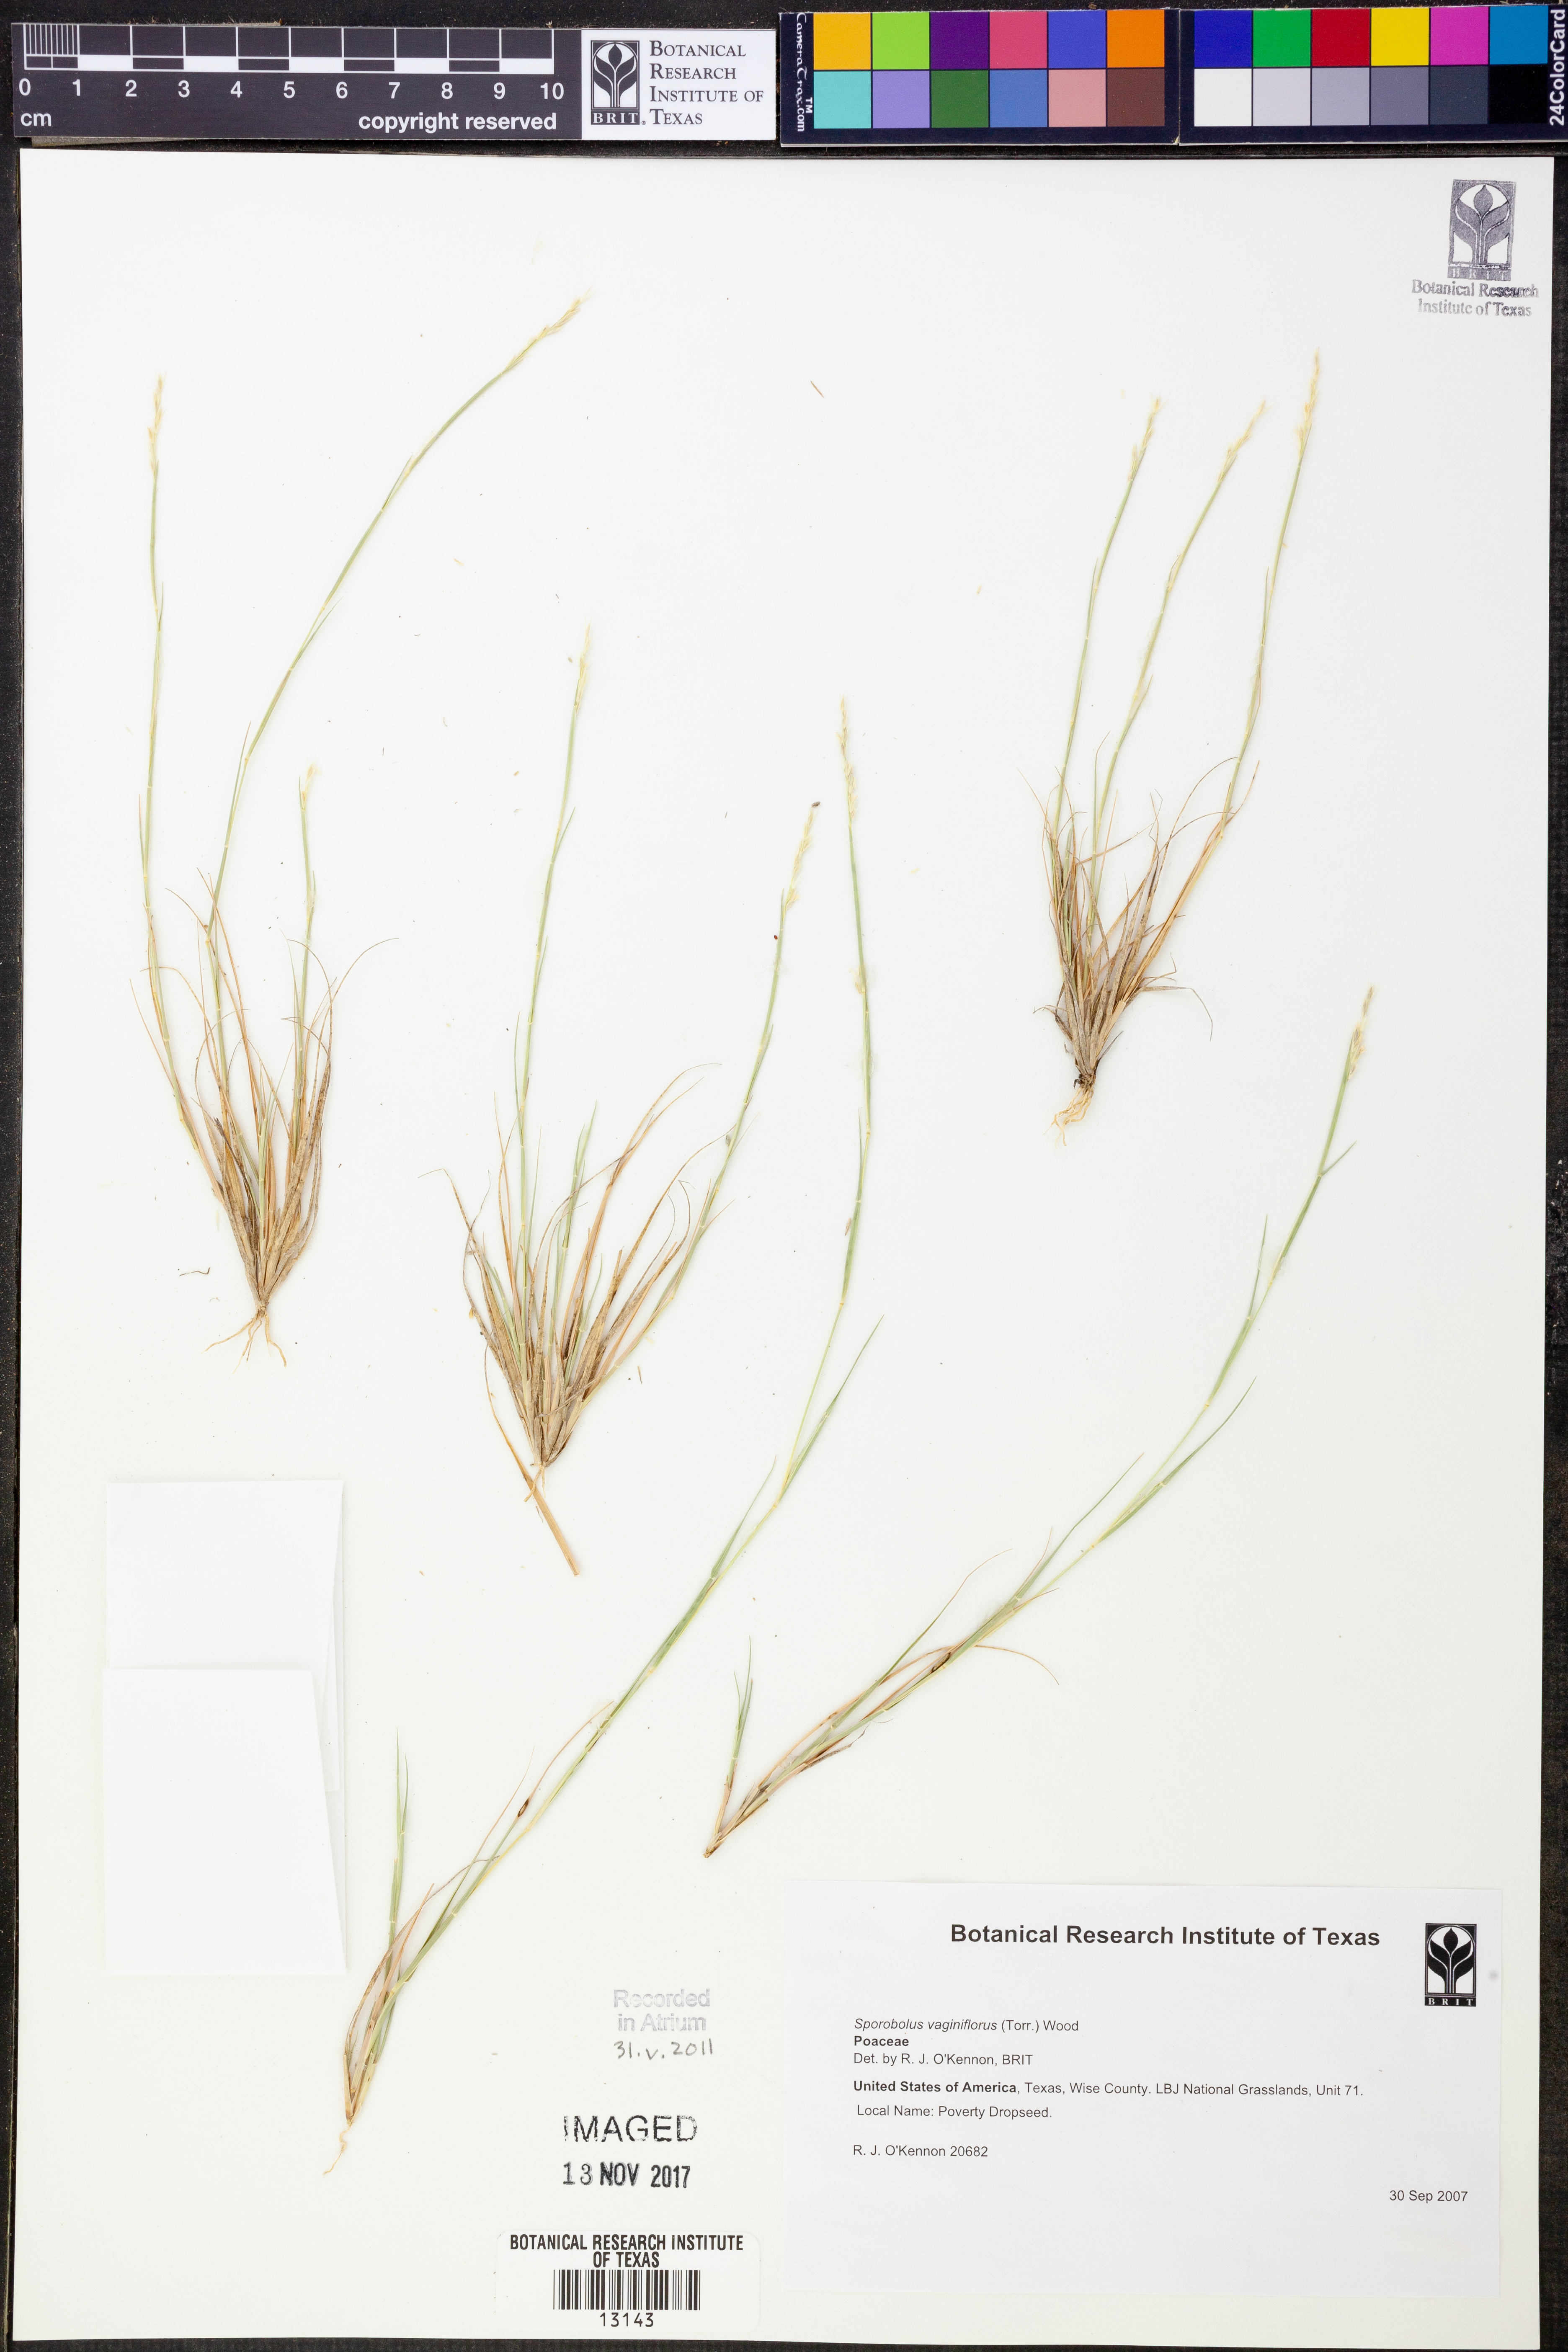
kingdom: Plantae
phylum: Tracheophyta
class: Liliopsida
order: Poales
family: Poaceae
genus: Sporobolus
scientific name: Sporobolus vaginiflorus
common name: Poverty dropseed
